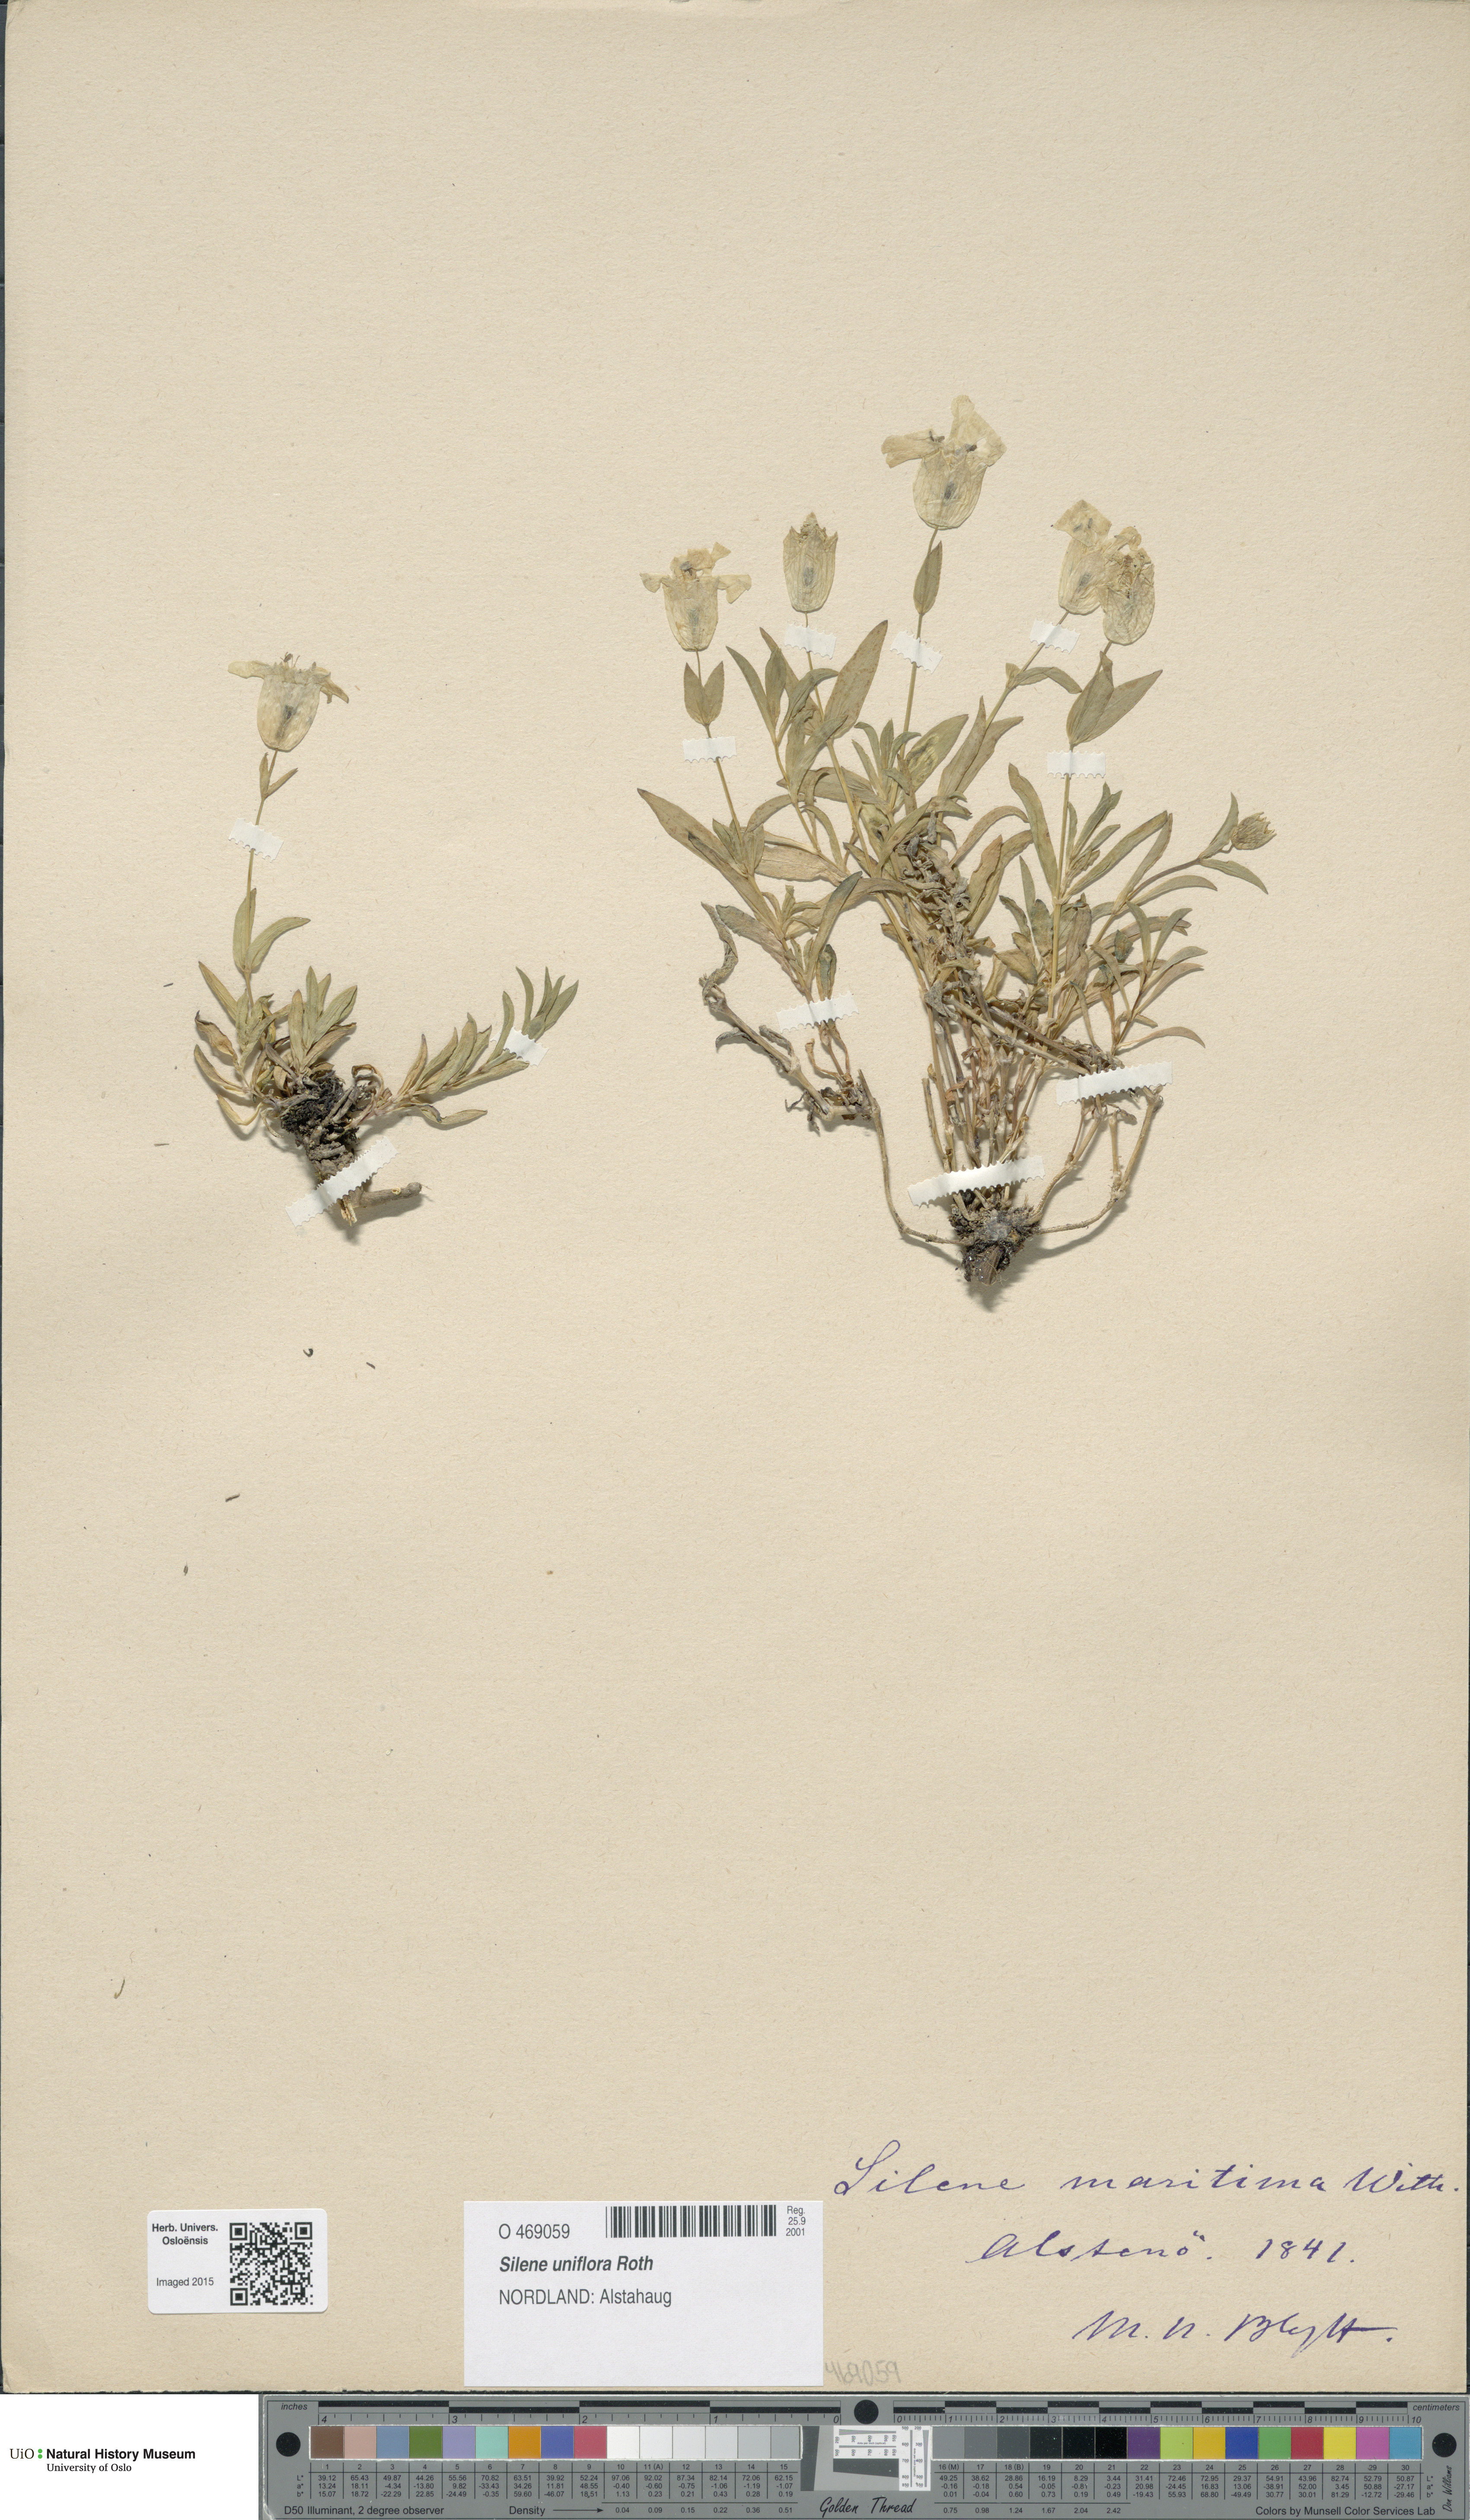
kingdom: Plantae
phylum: Tracheophyta
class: Magnoliopsida
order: Caryophyllales
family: Caryophyllaceae
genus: Silene
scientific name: Silene uniflora
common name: Sea campion
